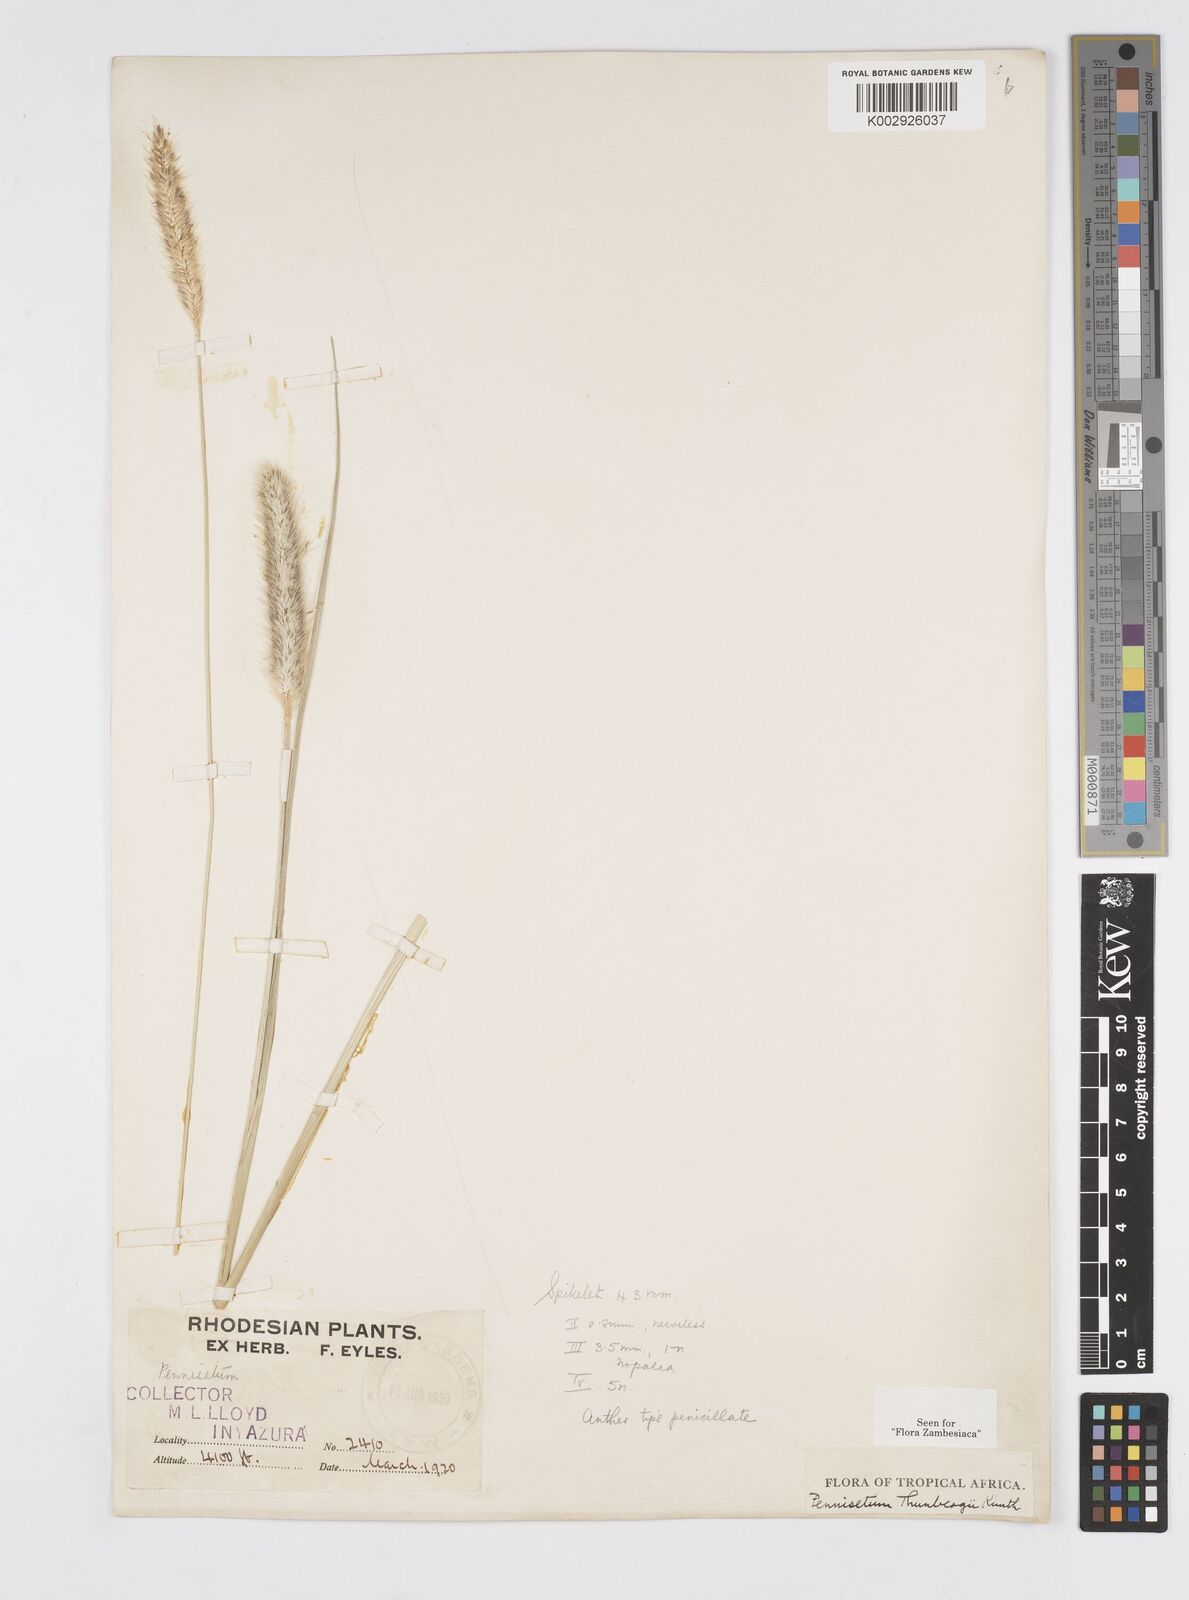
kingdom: Plantae
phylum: Tracheophyta
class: Liliopsida
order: Poales
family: Poaceae
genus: Cenchrus
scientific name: Cenchrus geniculatus
